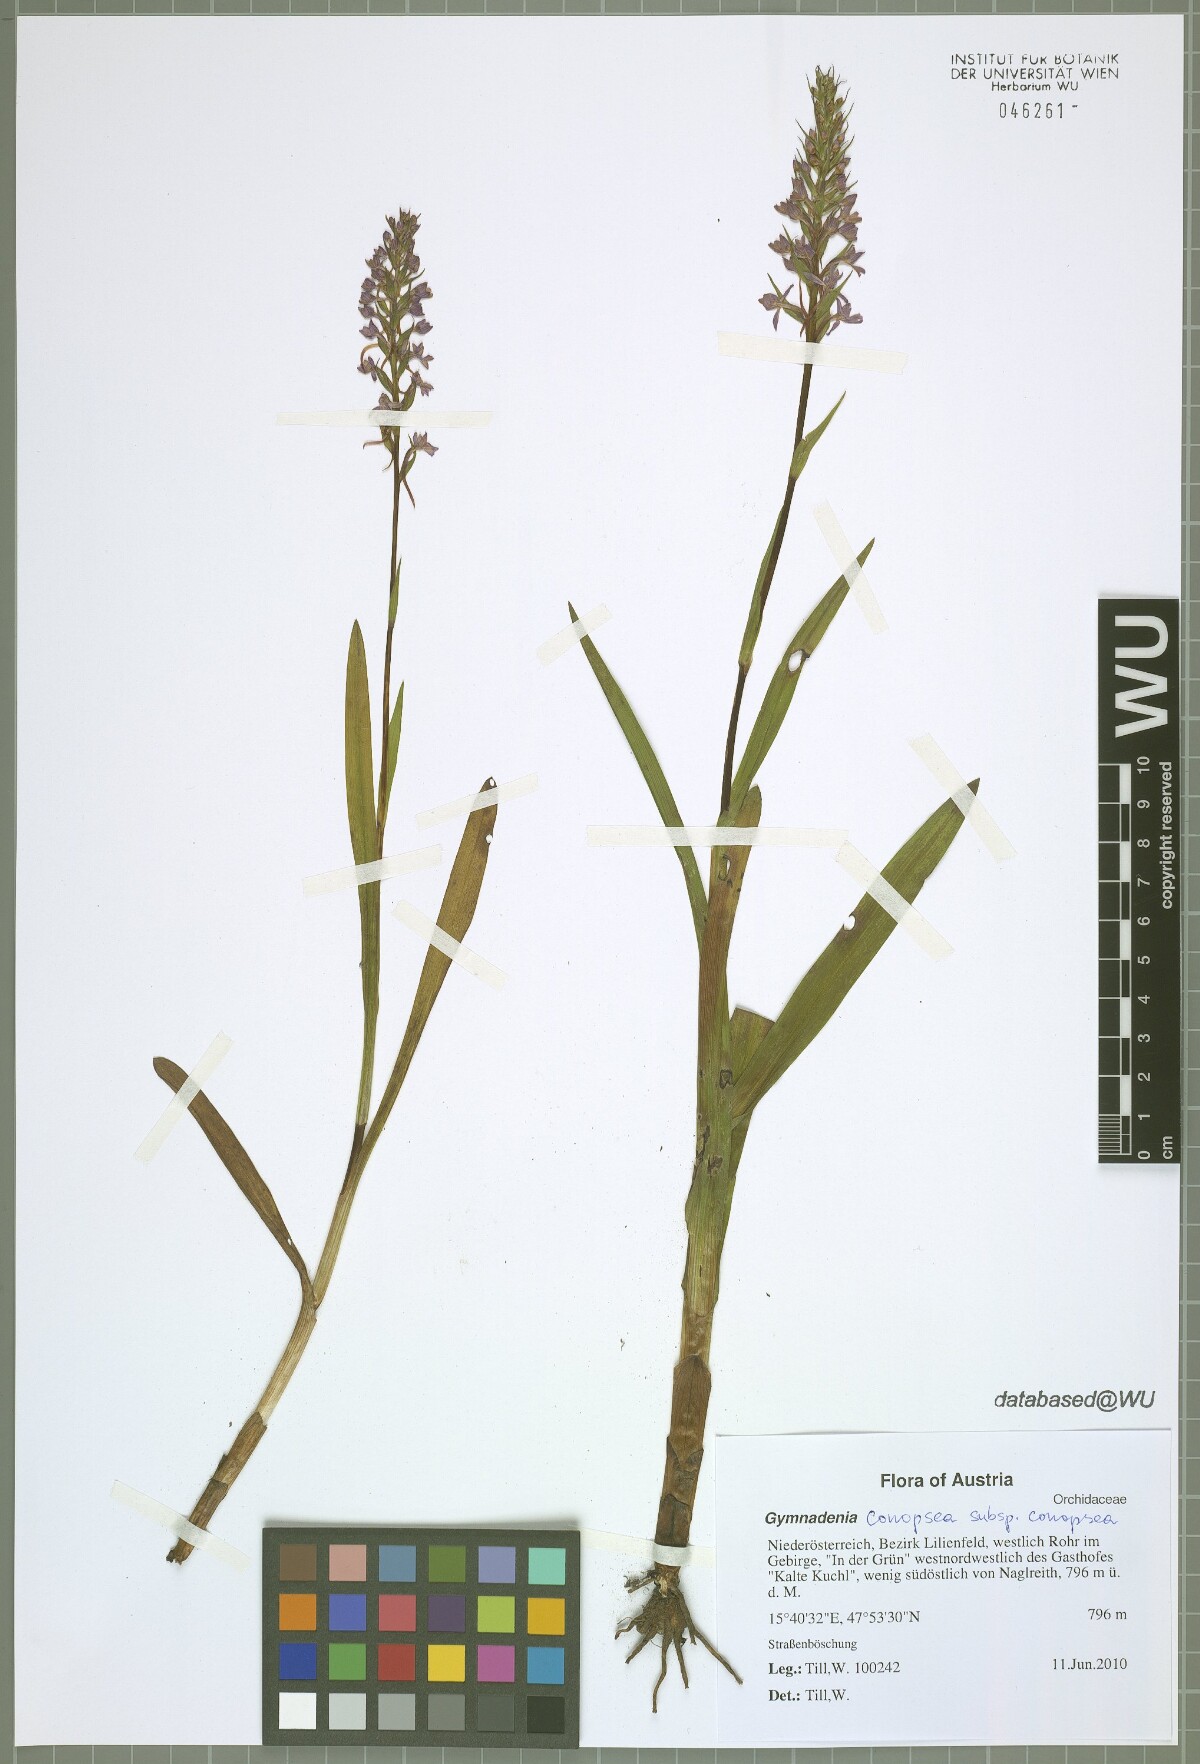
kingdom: Plantae
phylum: Tracheophyta
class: Liliopsida
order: Asparagales
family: Orchidaceae
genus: Gymnadenia
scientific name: Gymnadenia conopsea
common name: Fragrant orchid
